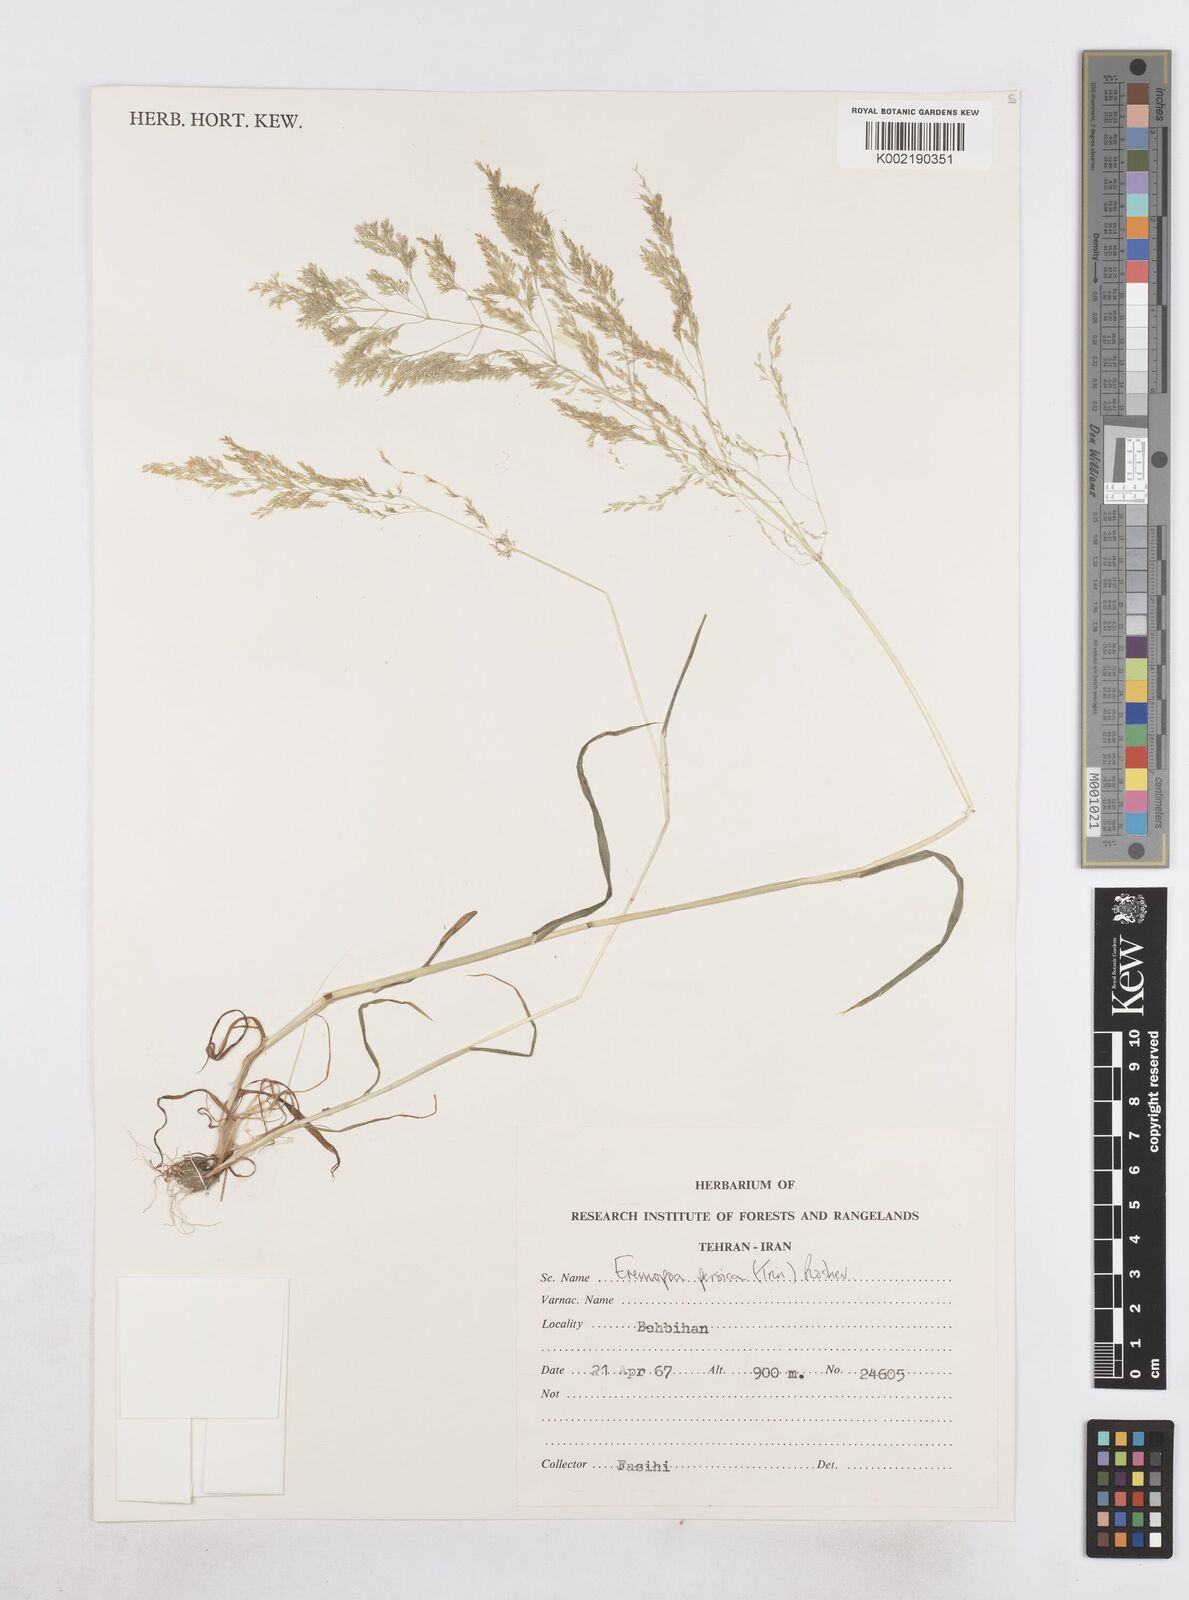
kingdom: Plantae
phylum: Tracheophyta
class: Liliopsida
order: Poales
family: Poaceae
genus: Poa
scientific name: Poa persica
